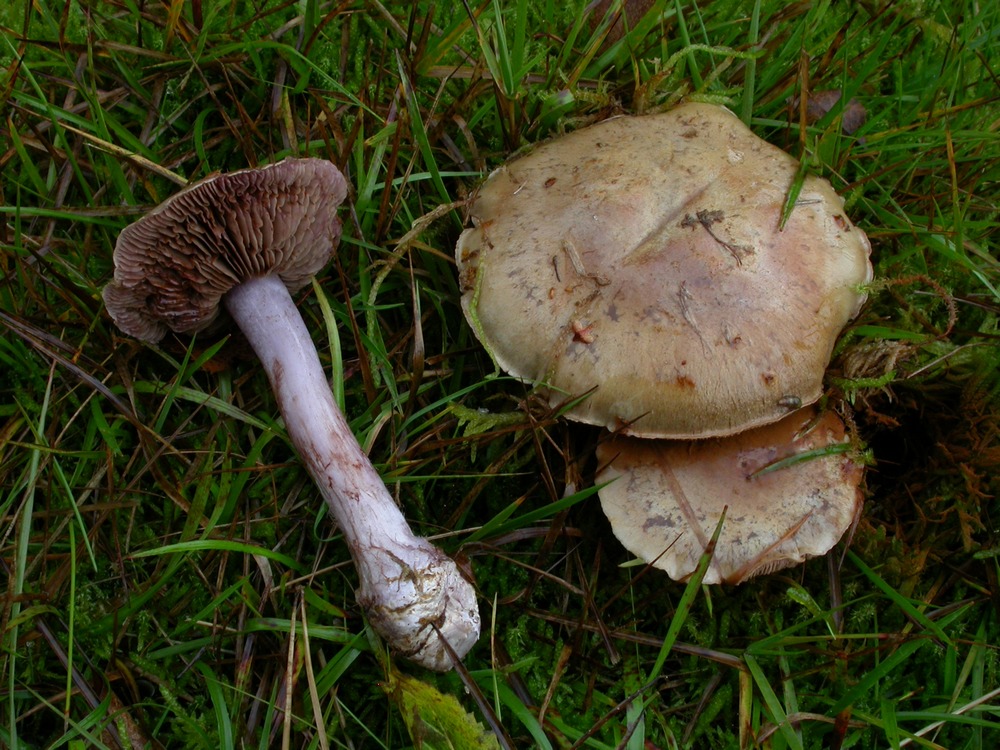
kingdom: Fungi
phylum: Basidiomycota
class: Agaricomycetes
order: Agaricales
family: Cortinariaceae
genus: Thaxterogaster
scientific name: Thaxterogaster porphyropus
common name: purpurstokket slørhat
